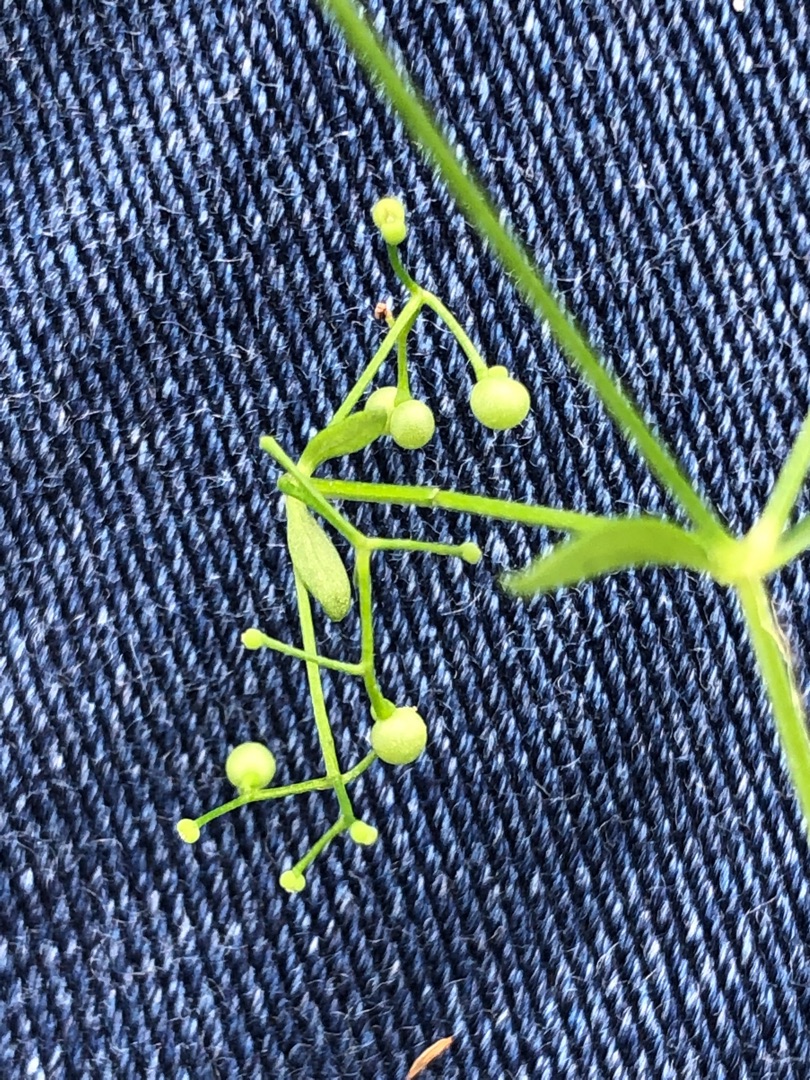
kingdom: Plantae
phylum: Tracheophyta
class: Magnoliopsida
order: Gentianales
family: Rubiaceae
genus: Galium
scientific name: Galium palustre
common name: Kær-snerre
